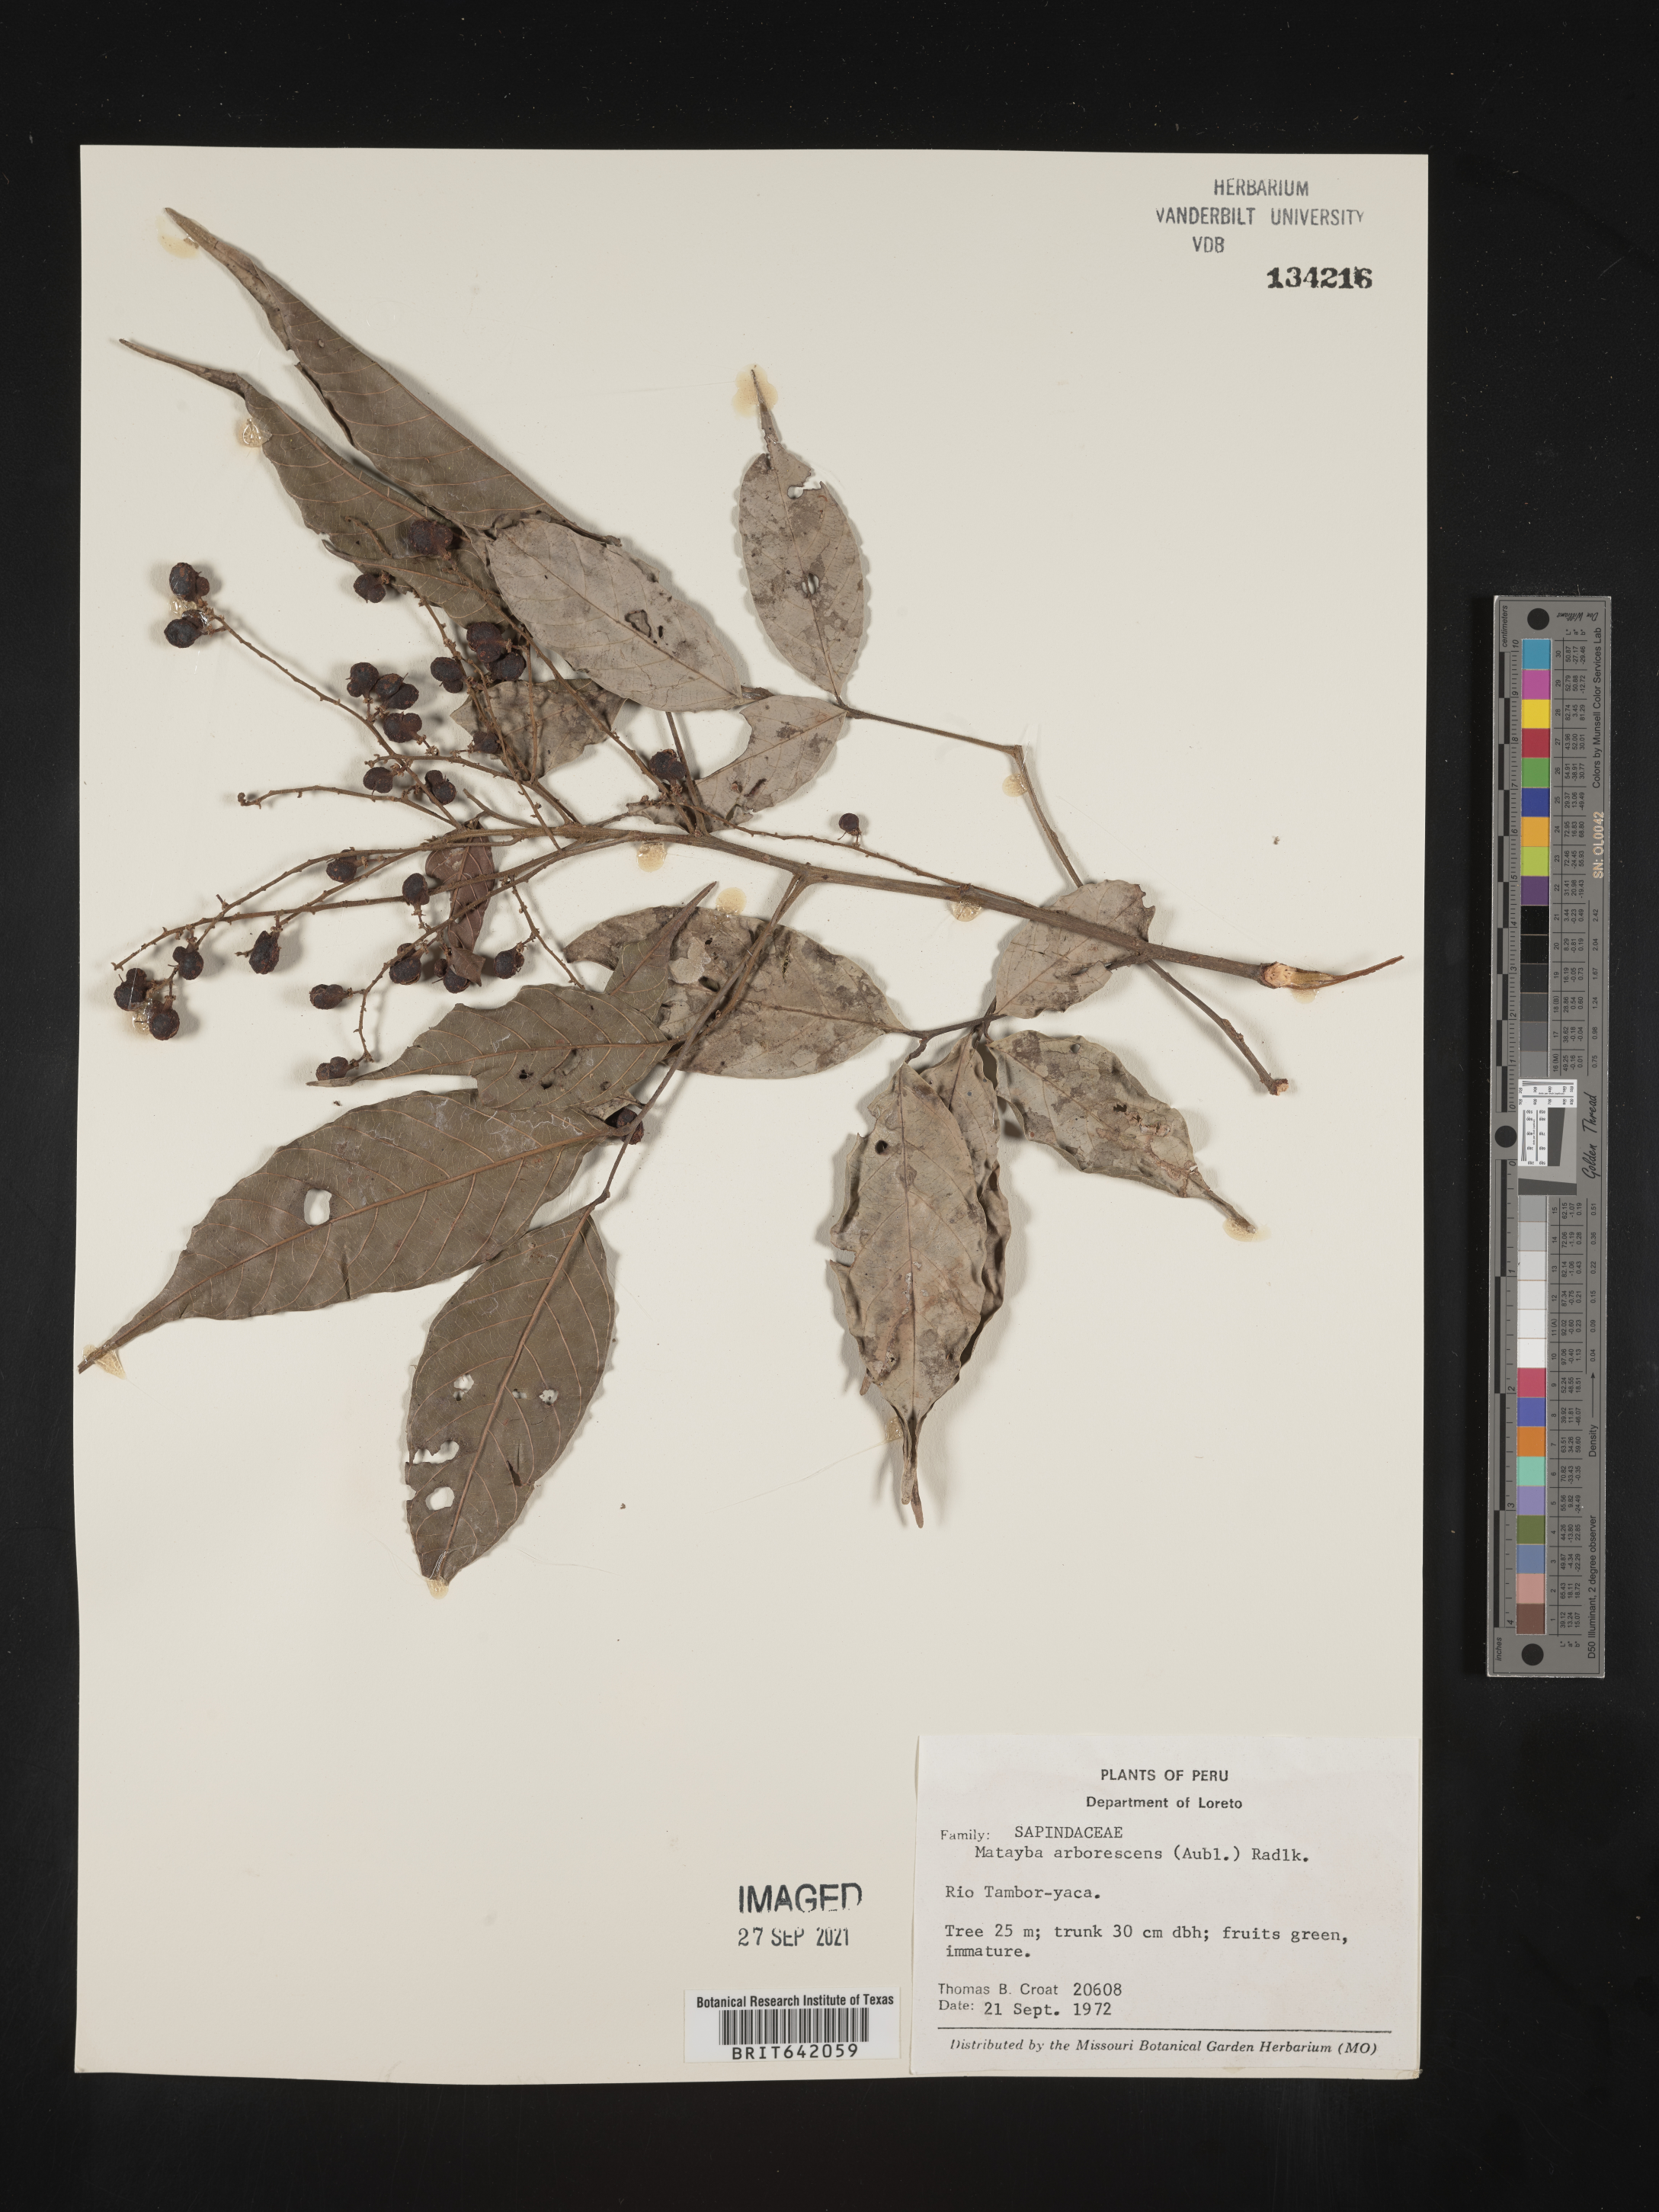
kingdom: Plantae
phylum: Tracheophyta
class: Magnoliopsida
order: Sapindales
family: Sapindaceae
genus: Matayba
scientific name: Matayba
